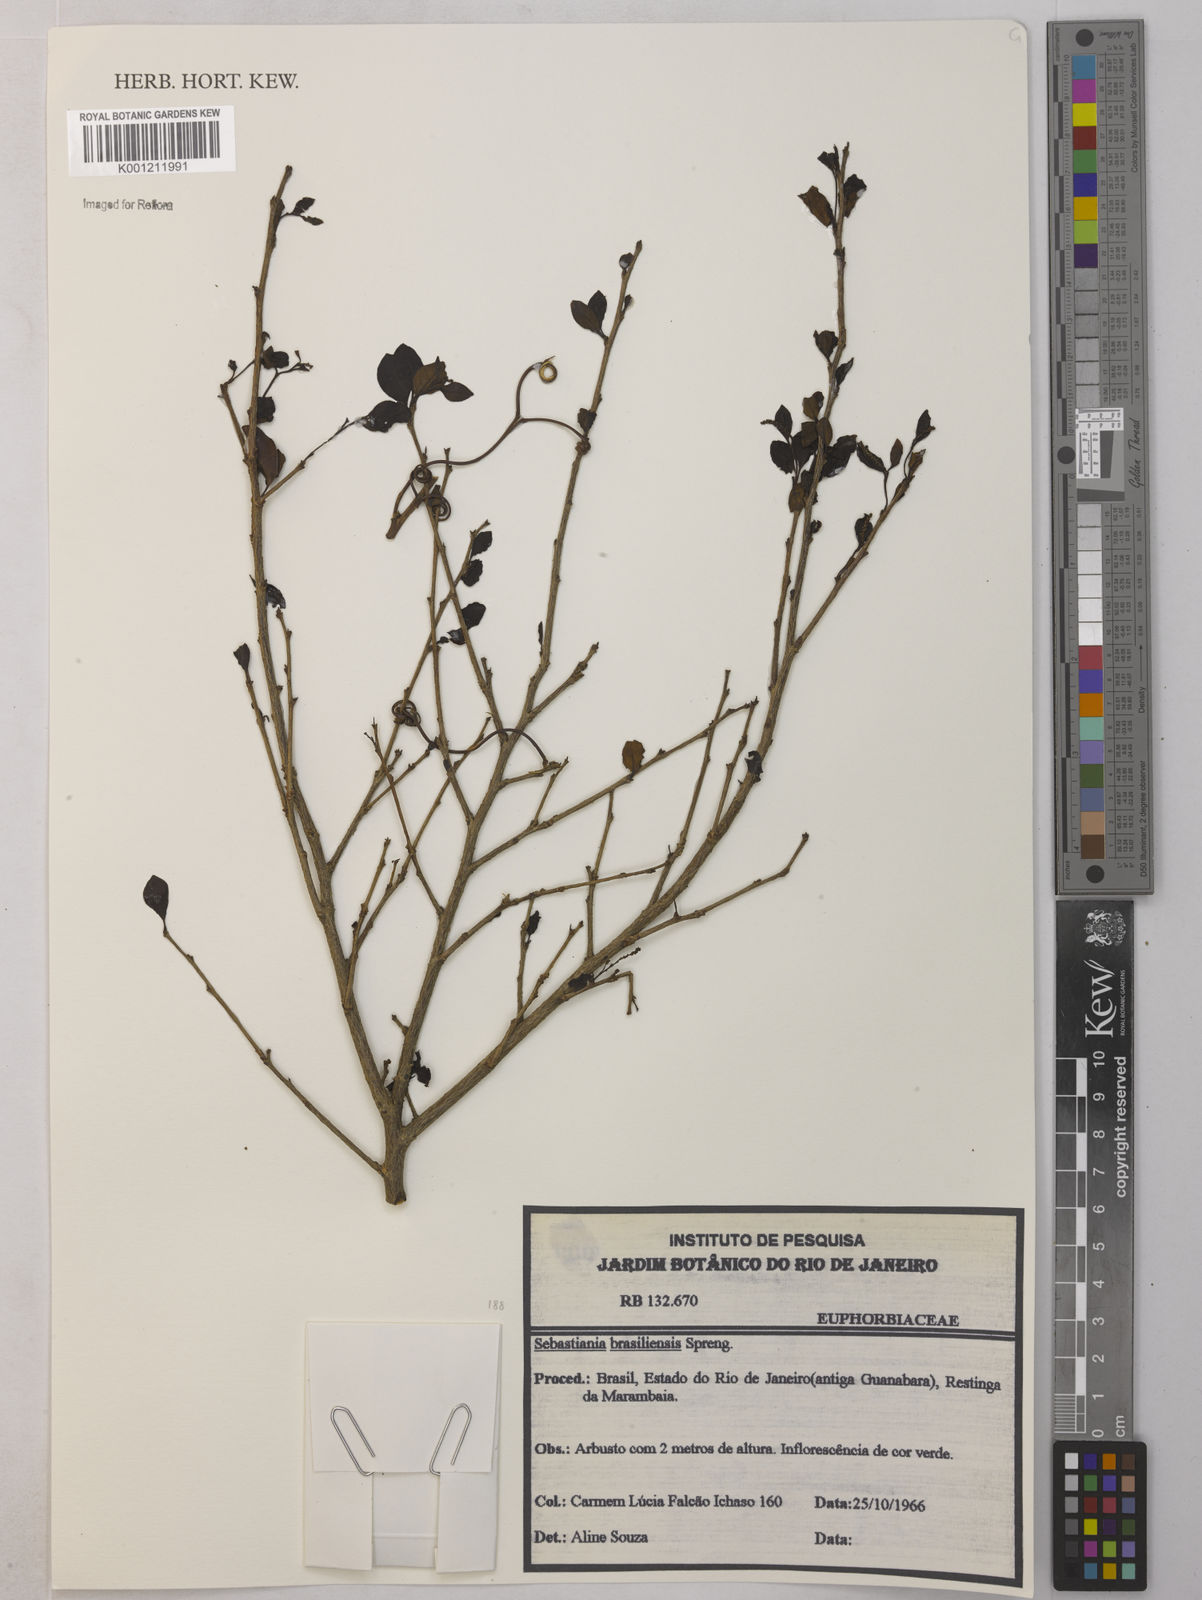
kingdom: Plantae
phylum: Tracheophyta
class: Magnoliopsida
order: Malpighiales
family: Euphorbiaceae
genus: Sebastiania
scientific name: Sebastiania brasiliensis
